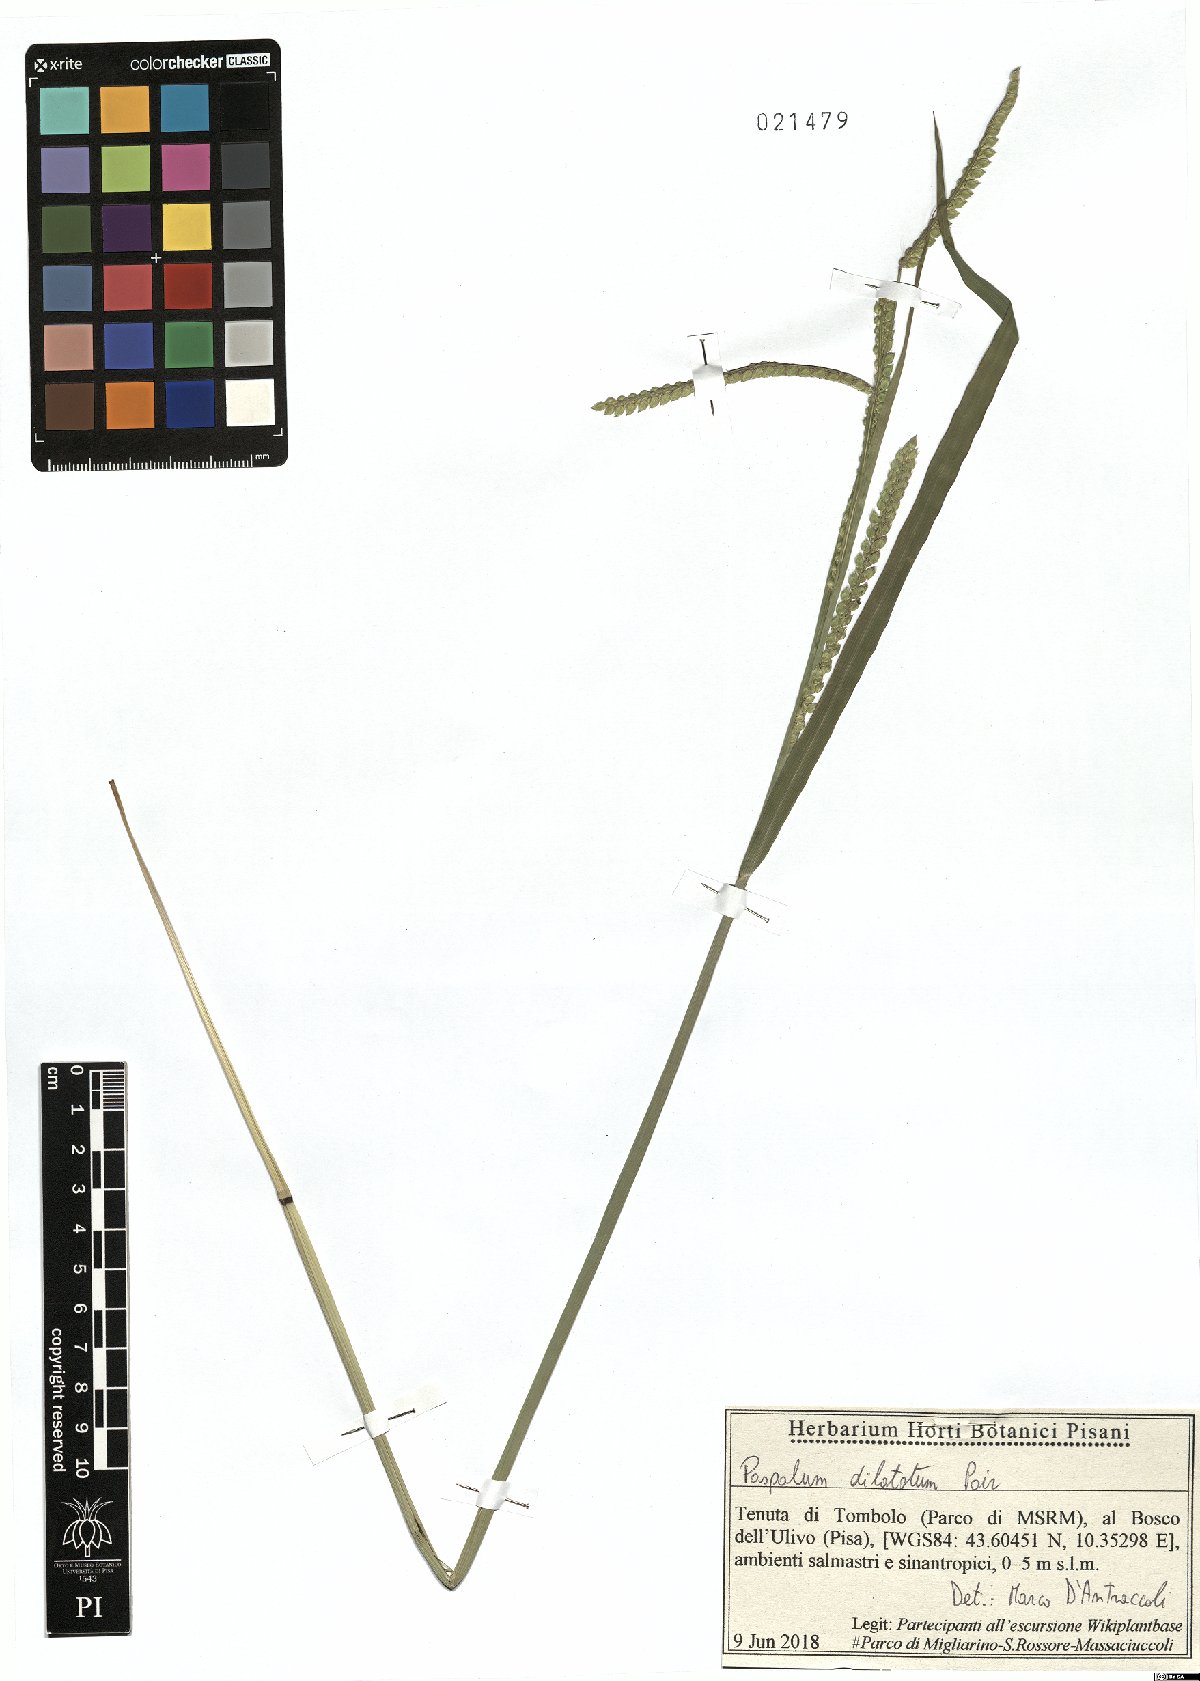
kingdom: Plantae
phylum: Tracheophyta
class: Liliopsida
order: Poales
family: Poaceae
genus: Paspalum
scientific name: Paspalum dilatatum
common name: Dallisgrass
